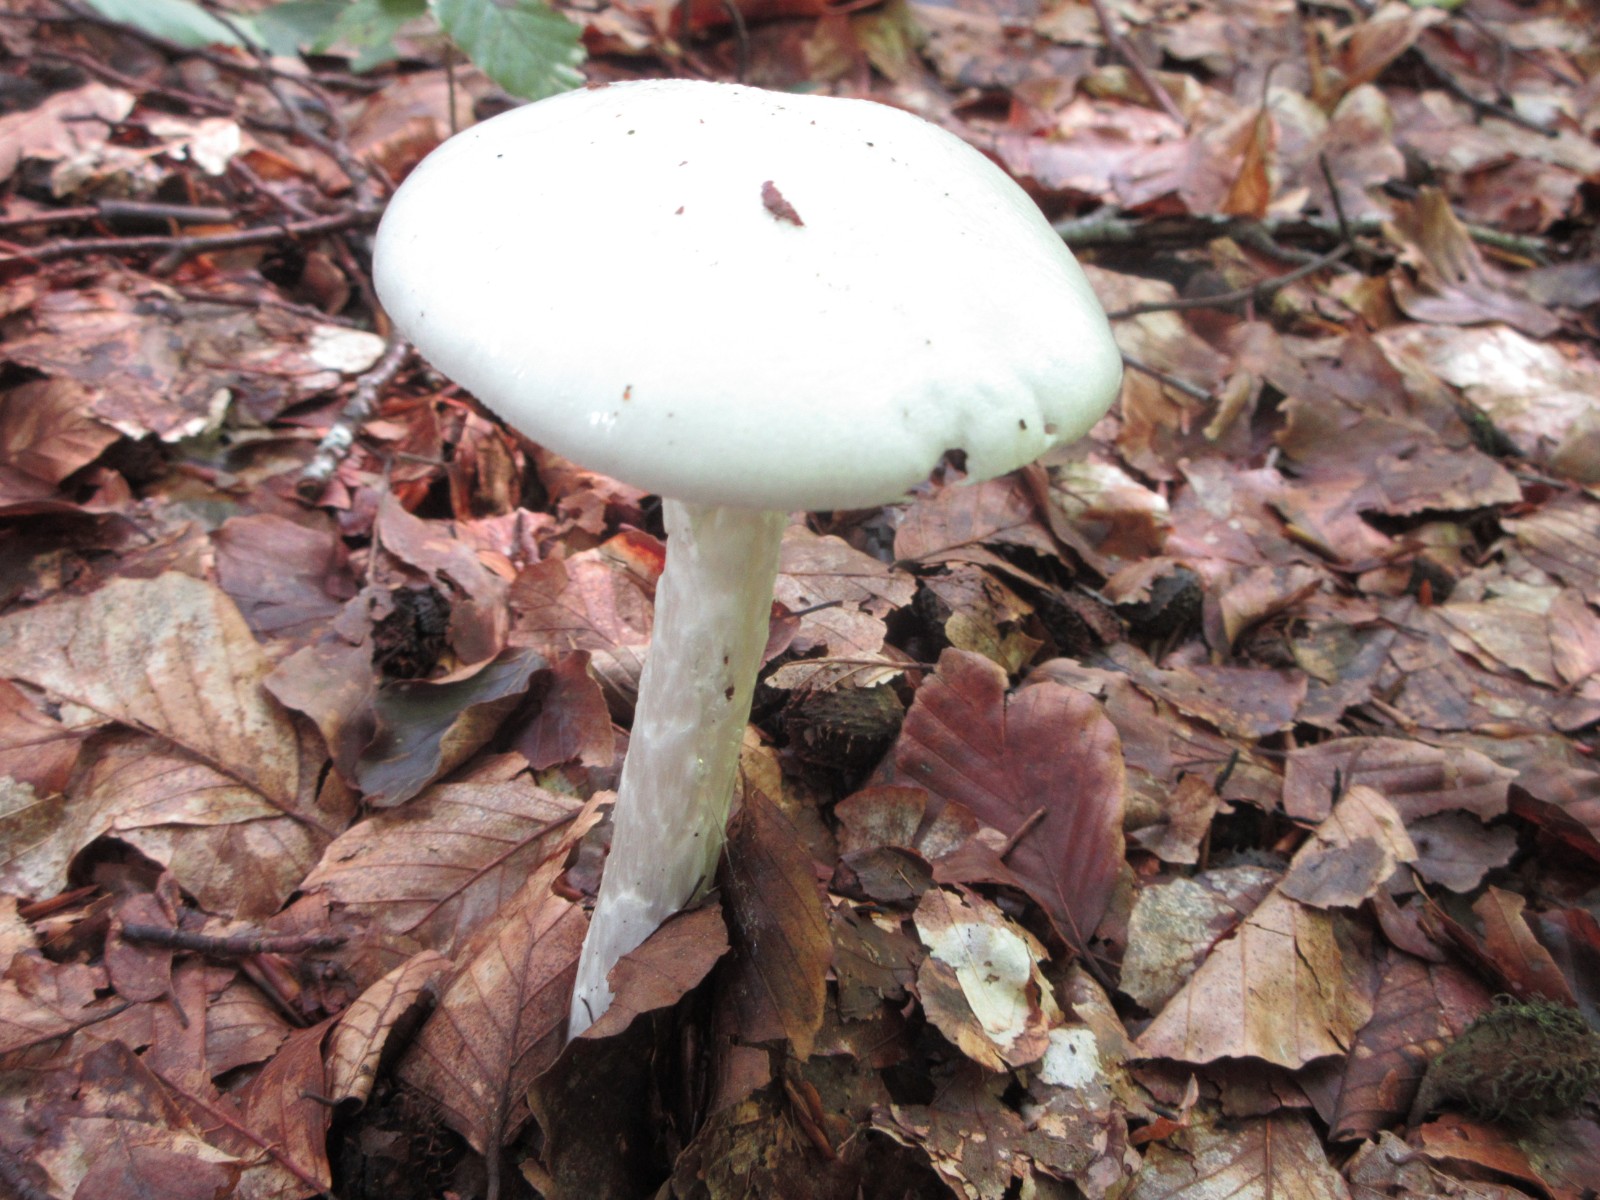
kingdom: Fungi
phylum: Basidiomycota
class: Agaricomycetes
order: Agaricales
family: Amanitaceae
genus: Amanita
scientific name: Amanita virosa
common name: snehvid fluesvamp
